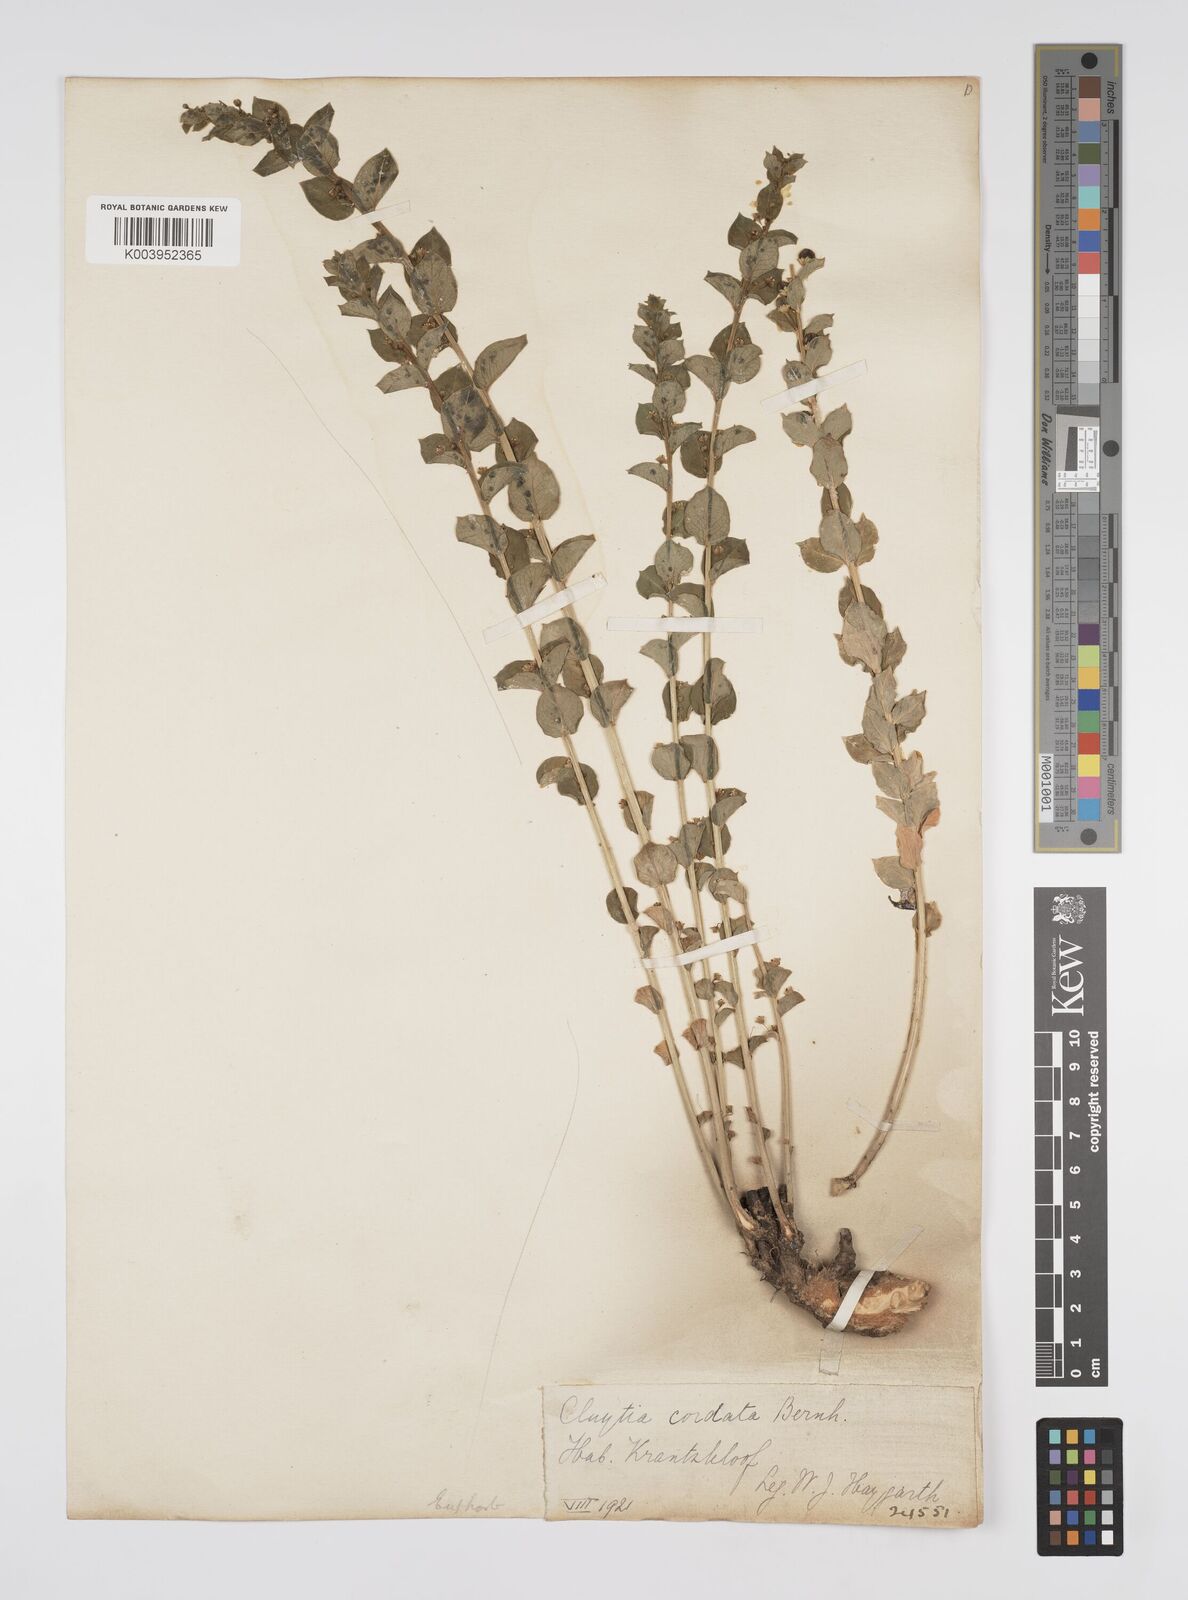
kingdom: Plantae
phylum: Tracheophyta
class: Magnoliopsida
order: Malpighiales
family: Peraceae
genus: Clutia
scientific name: Clutia cordata
